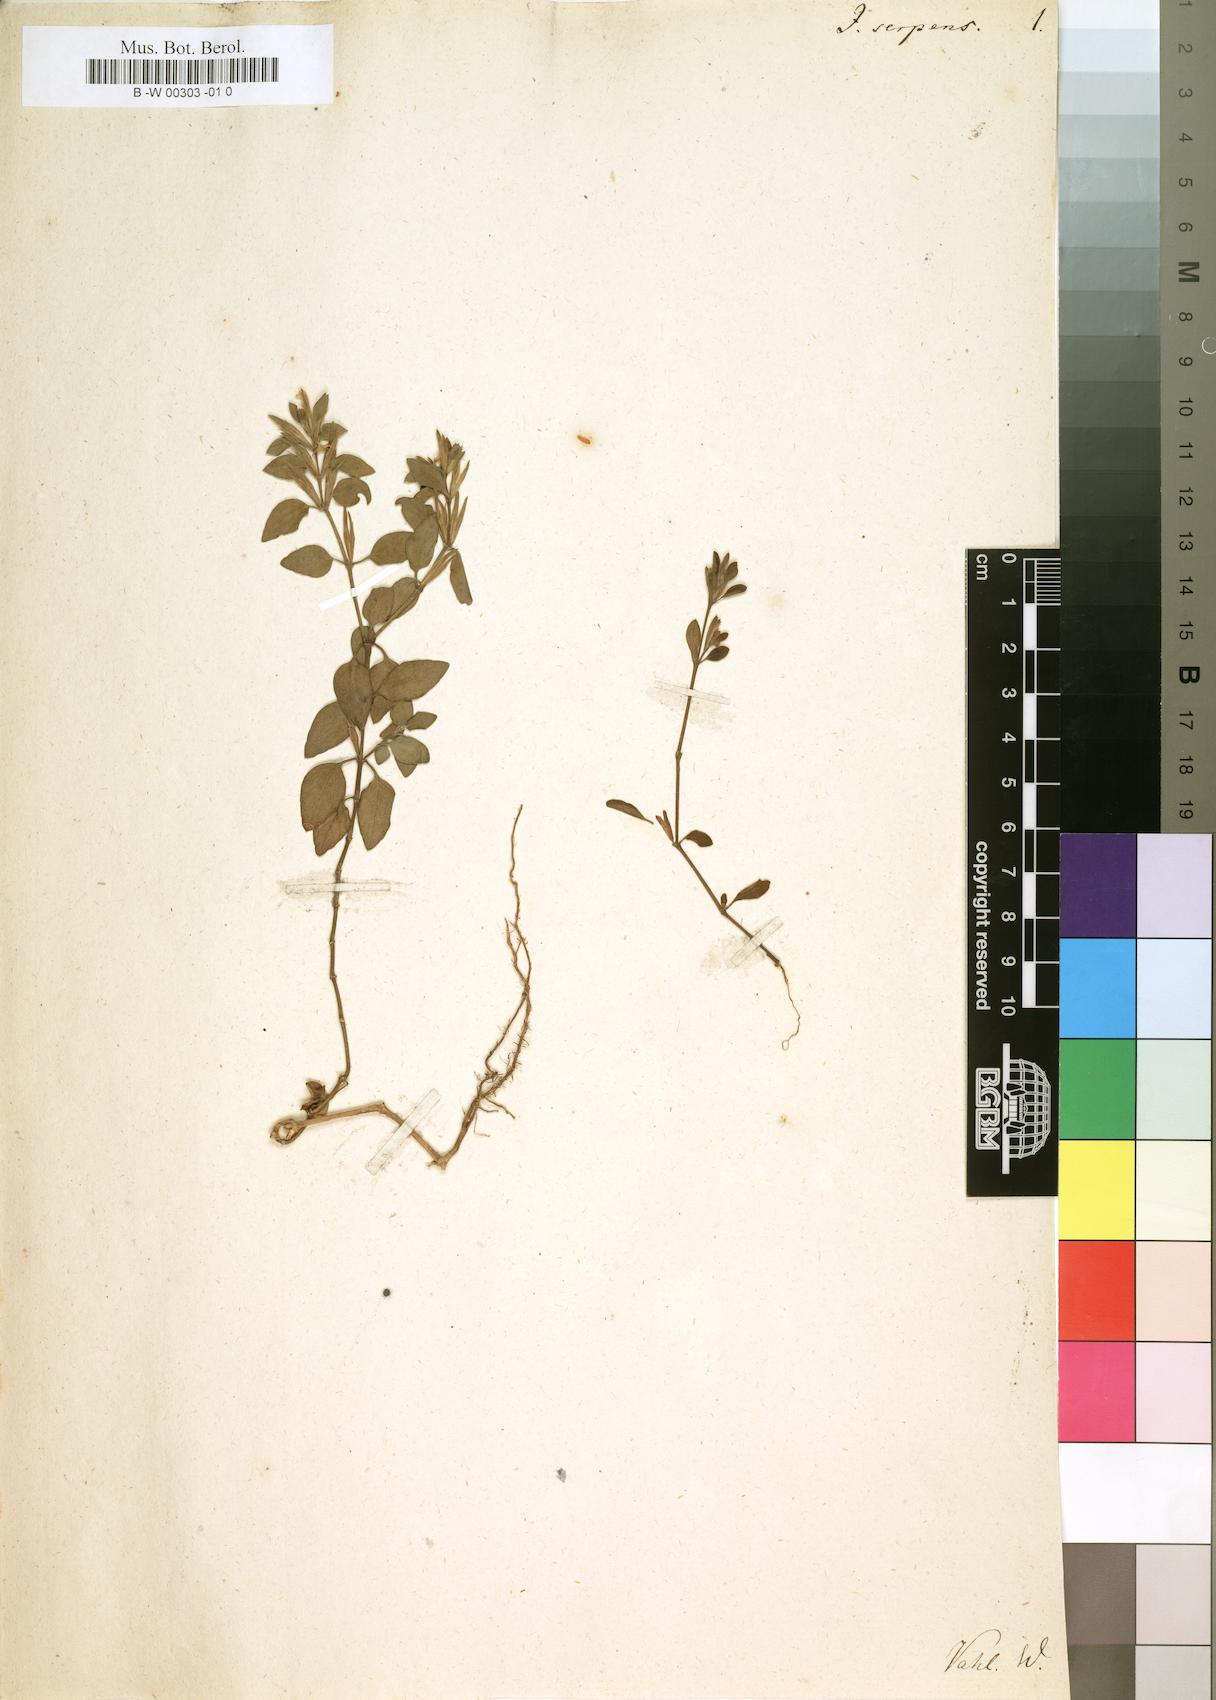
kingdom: Plantae
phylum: Tracheophyta
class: Magnoliopsida
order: Lamiales
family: Acanthaceae
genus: Hypoestes
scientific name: Hypoestes serpens
